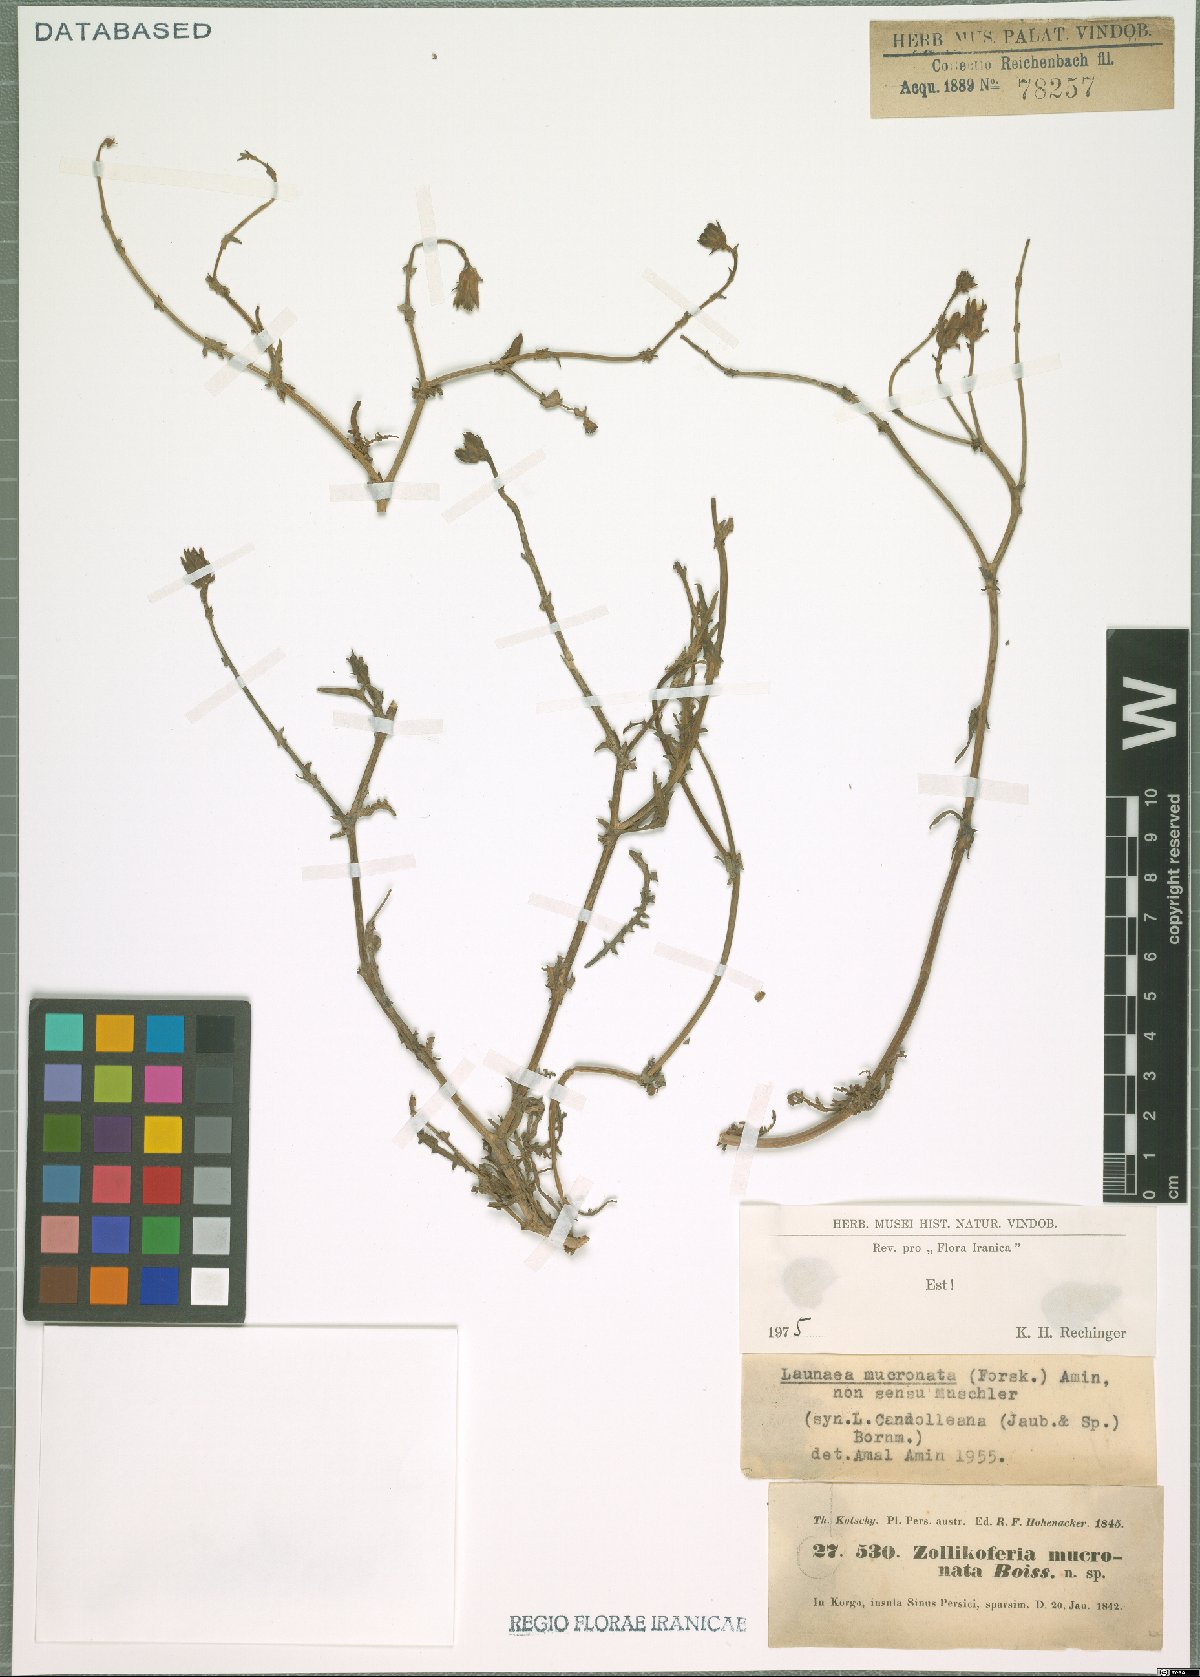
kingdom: Plantae
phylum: Tracheophyta
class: Magnoliopsida
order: Asterales
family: Asteraceae
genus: Launaea
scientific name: Launaea mucronata
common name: Mucronate launea
